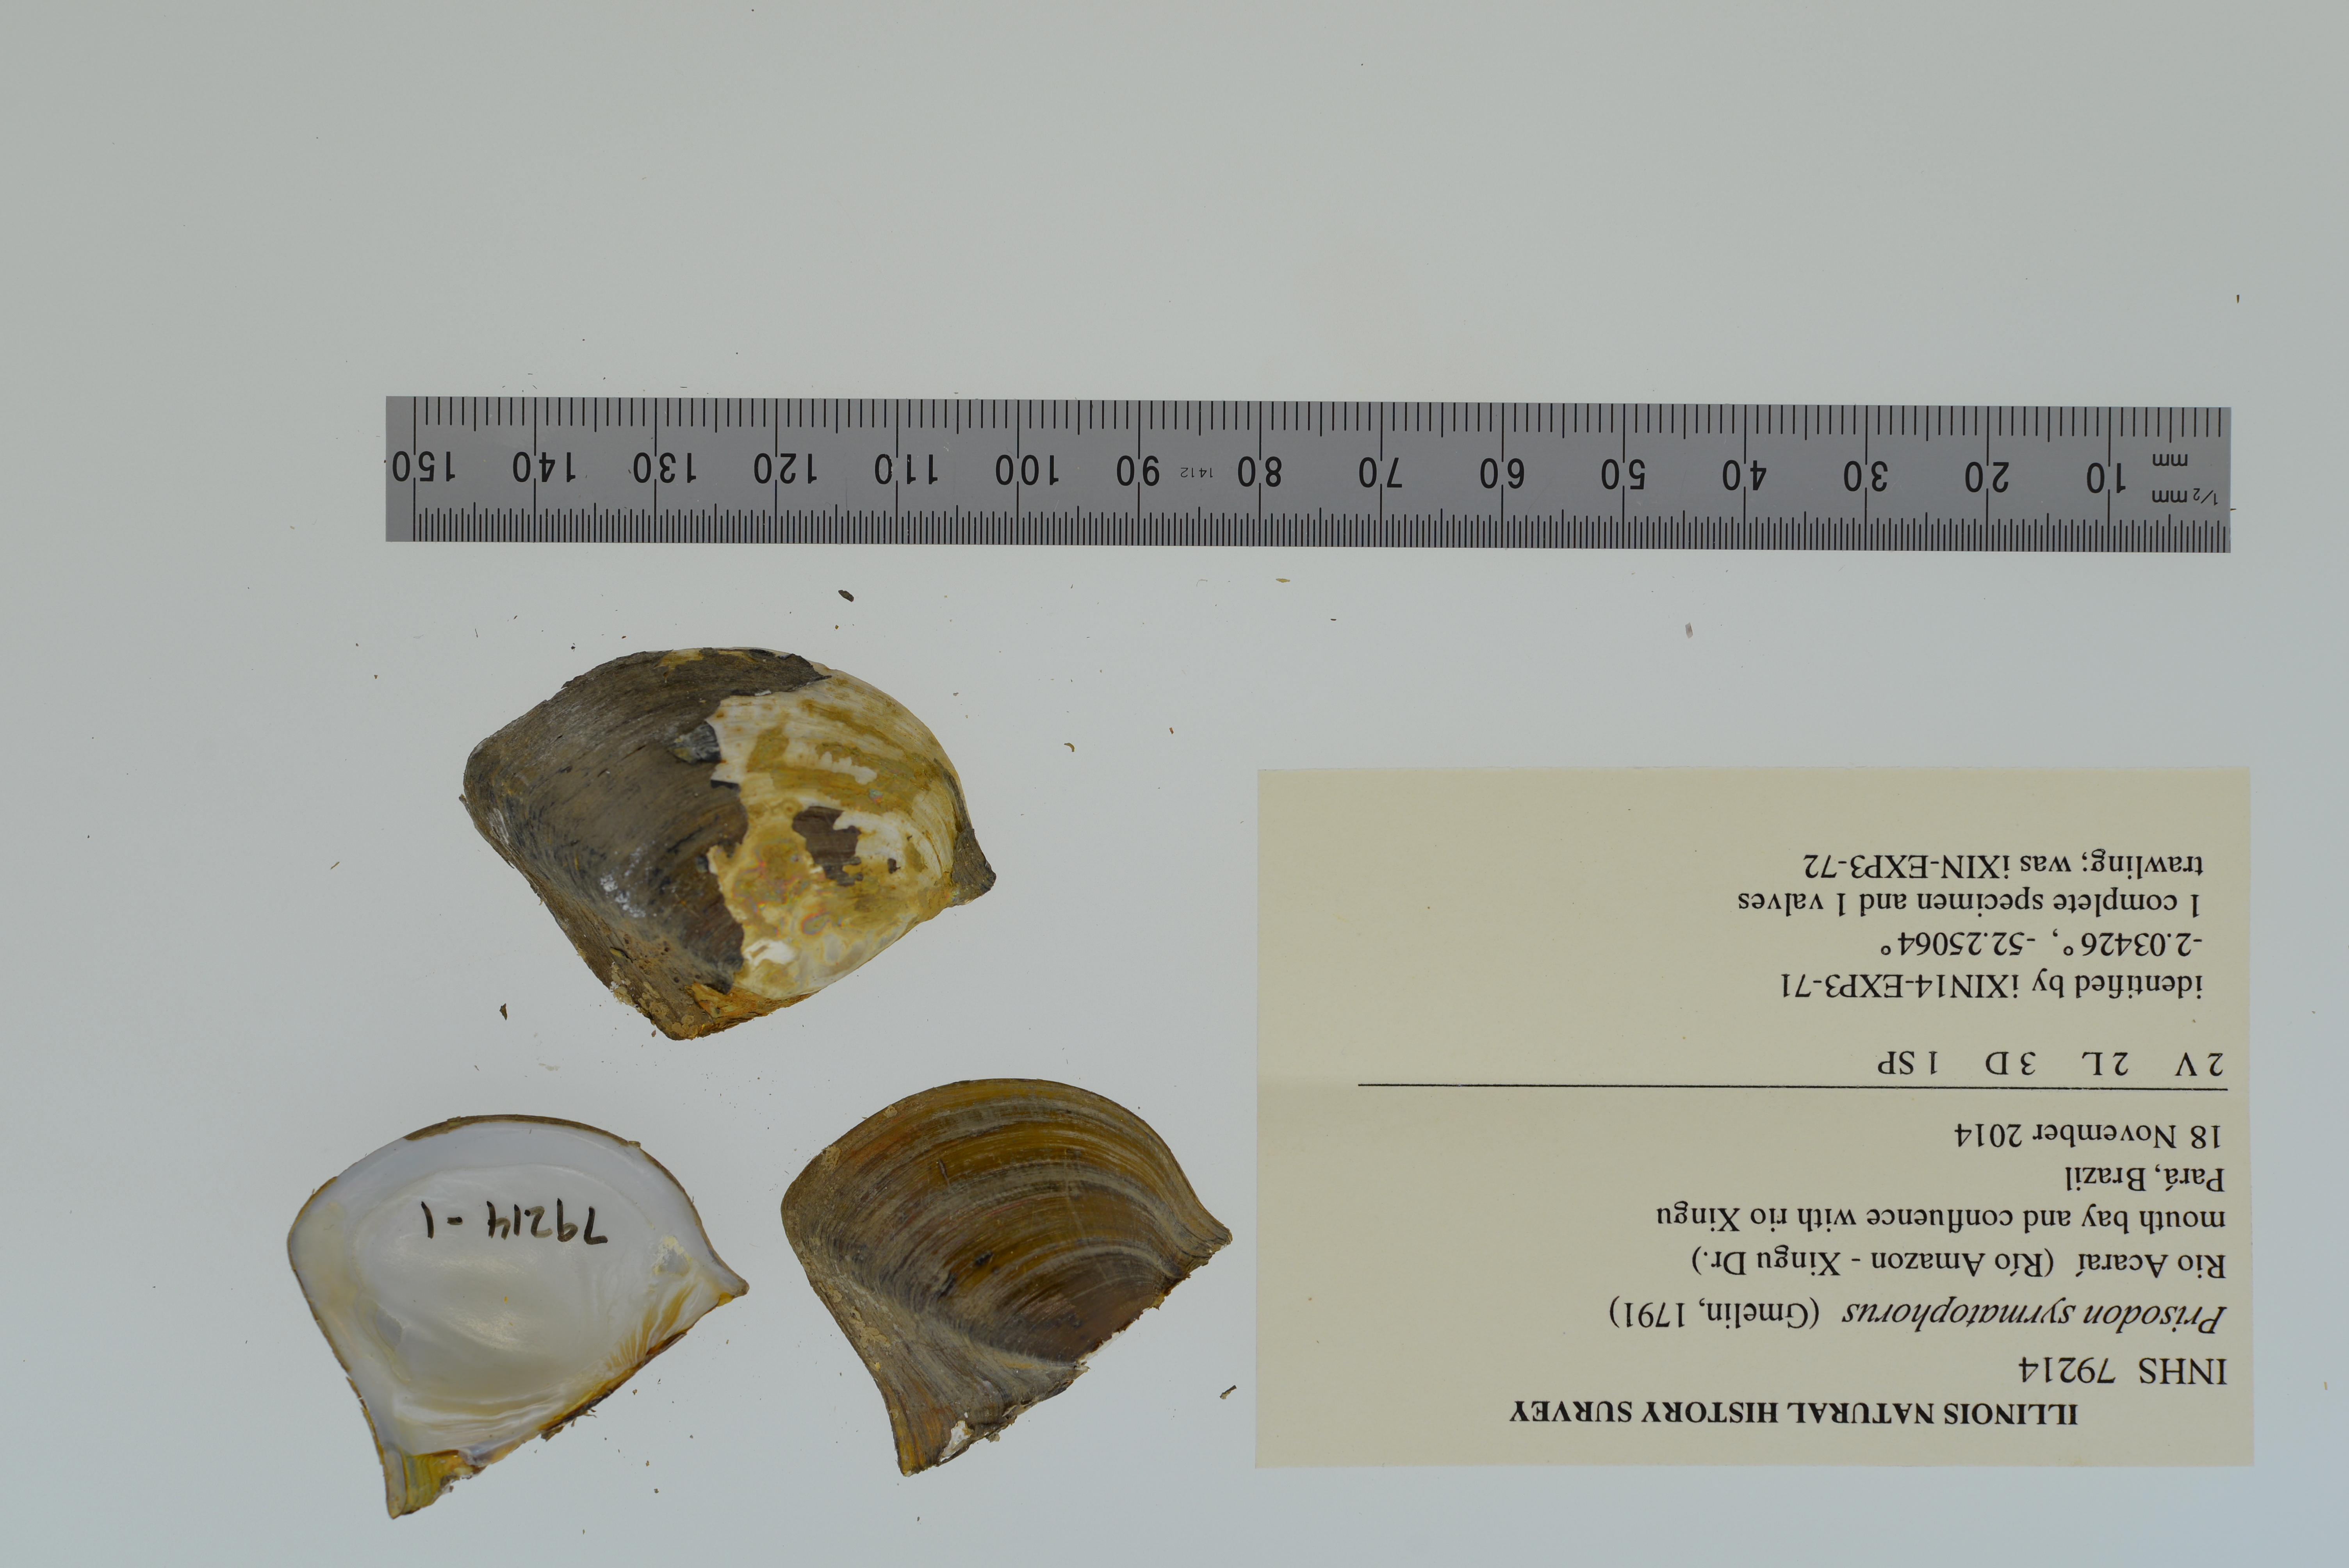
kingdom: Animalia
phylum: Mollusca
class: Bivalvia
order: Unionida
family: Hyriidae
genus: Prisodon
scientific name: Prisodon syrmatophorus
